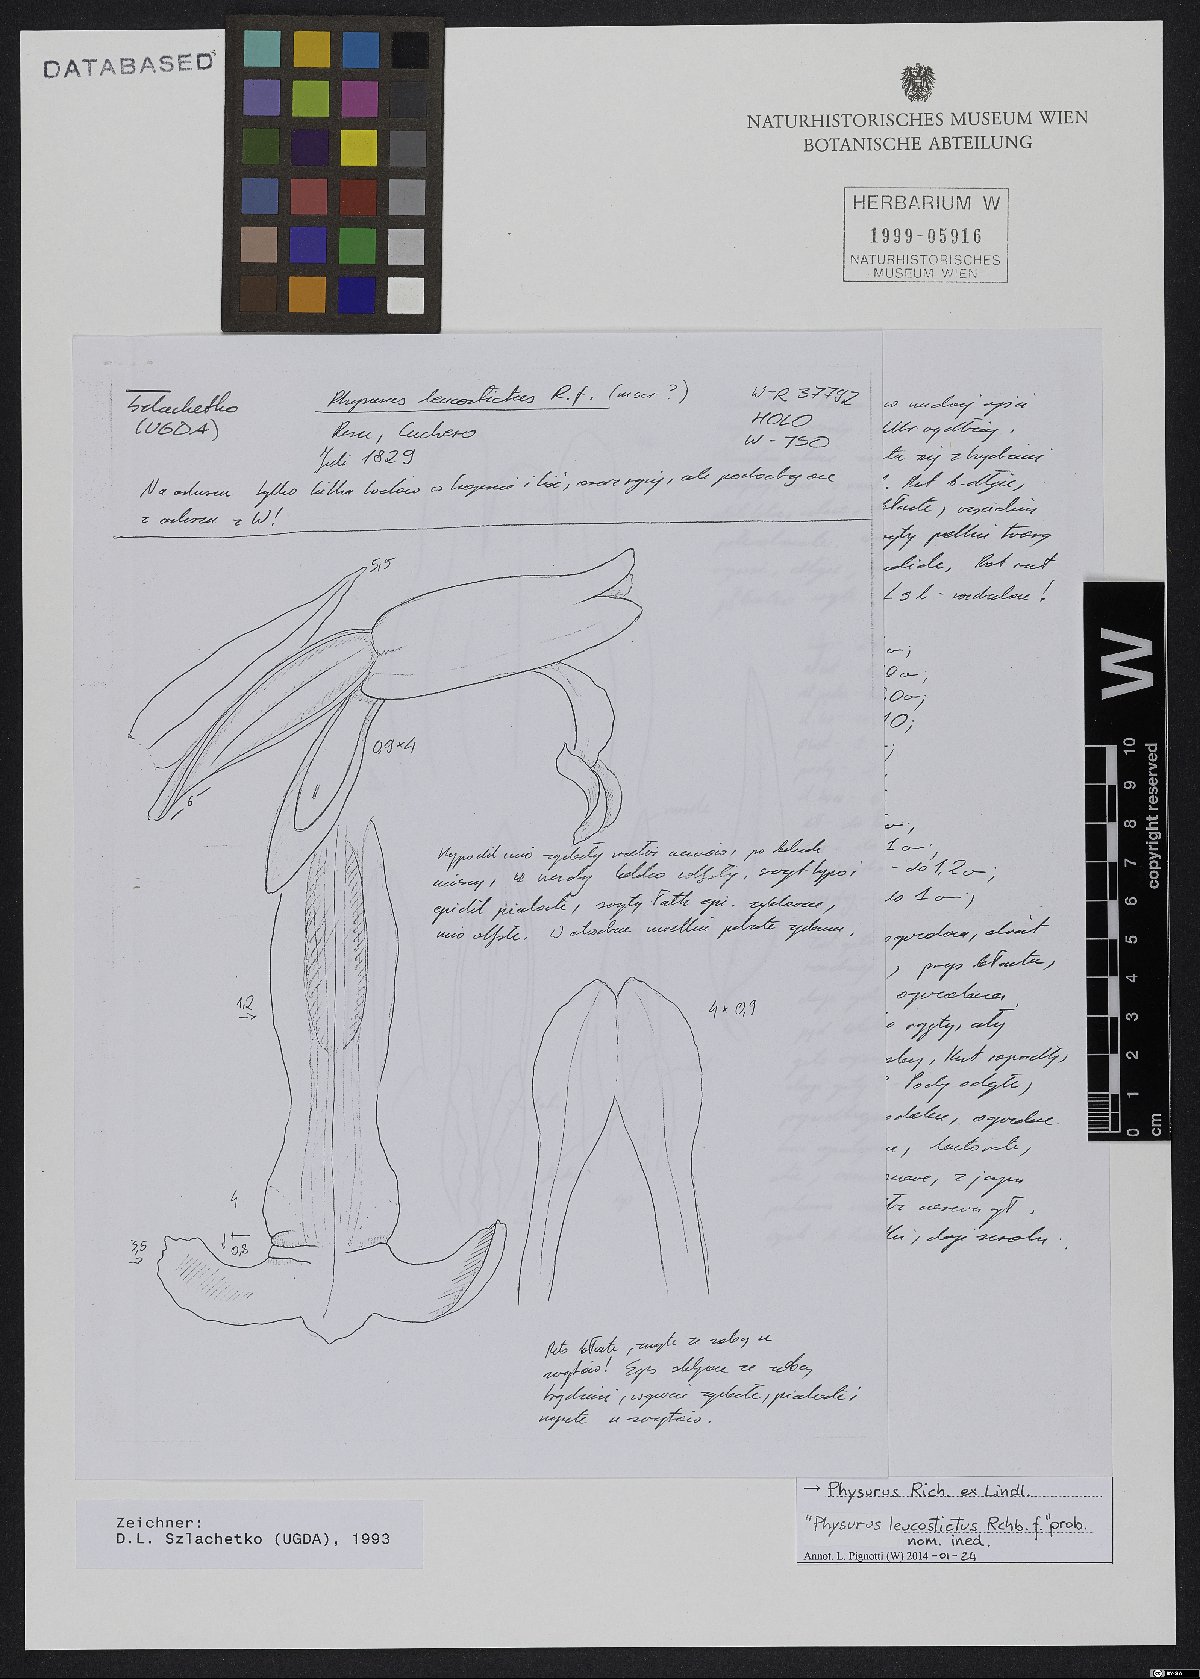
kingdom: Plantae
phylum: Tracheophyta
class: Liliopsida
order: Asparagales
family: Orchidaceae
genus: Erythrodes
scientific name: Erythrodes
